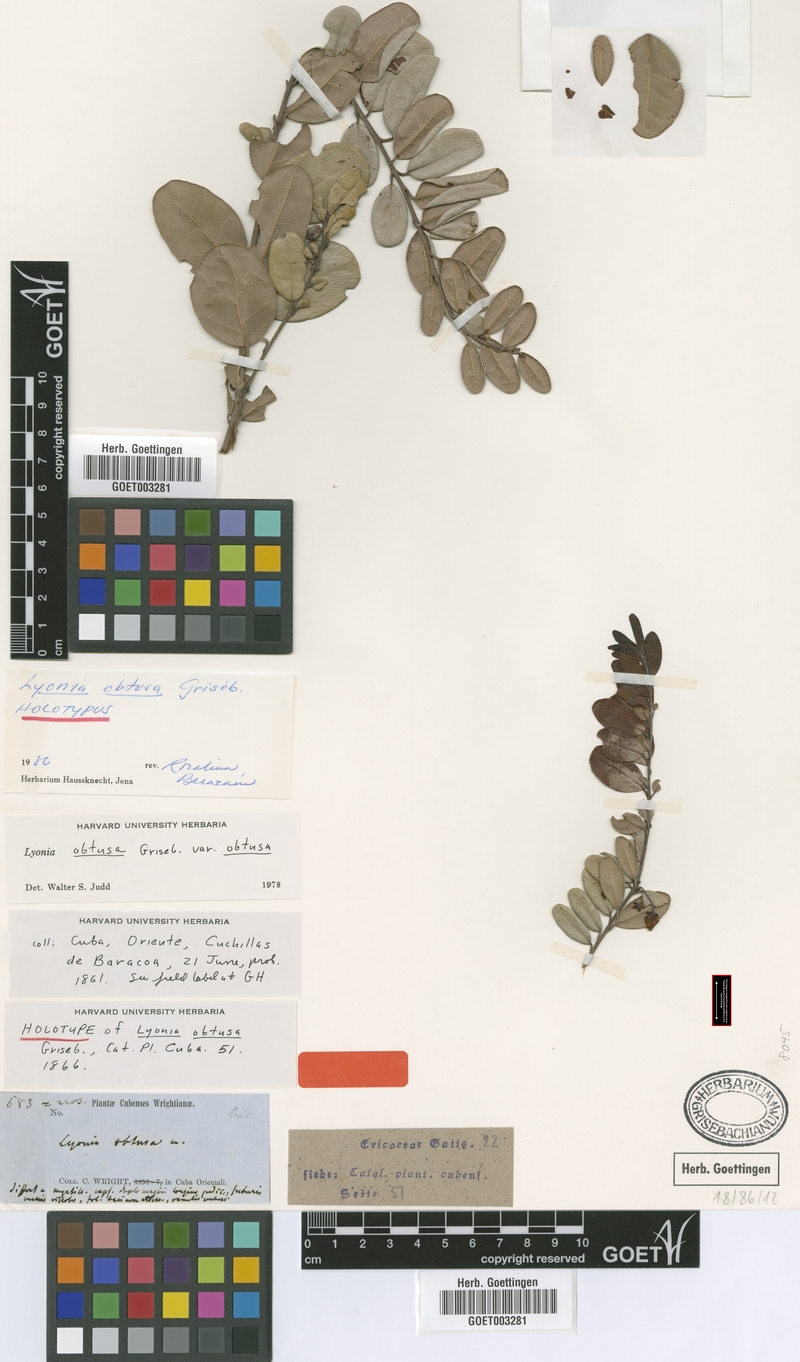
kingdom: Plantae
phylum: Tracheophyta
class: Magnoliopsida
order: Ericales
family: Ericaceae
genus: Lyonia
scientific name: Lyonia obtusa
